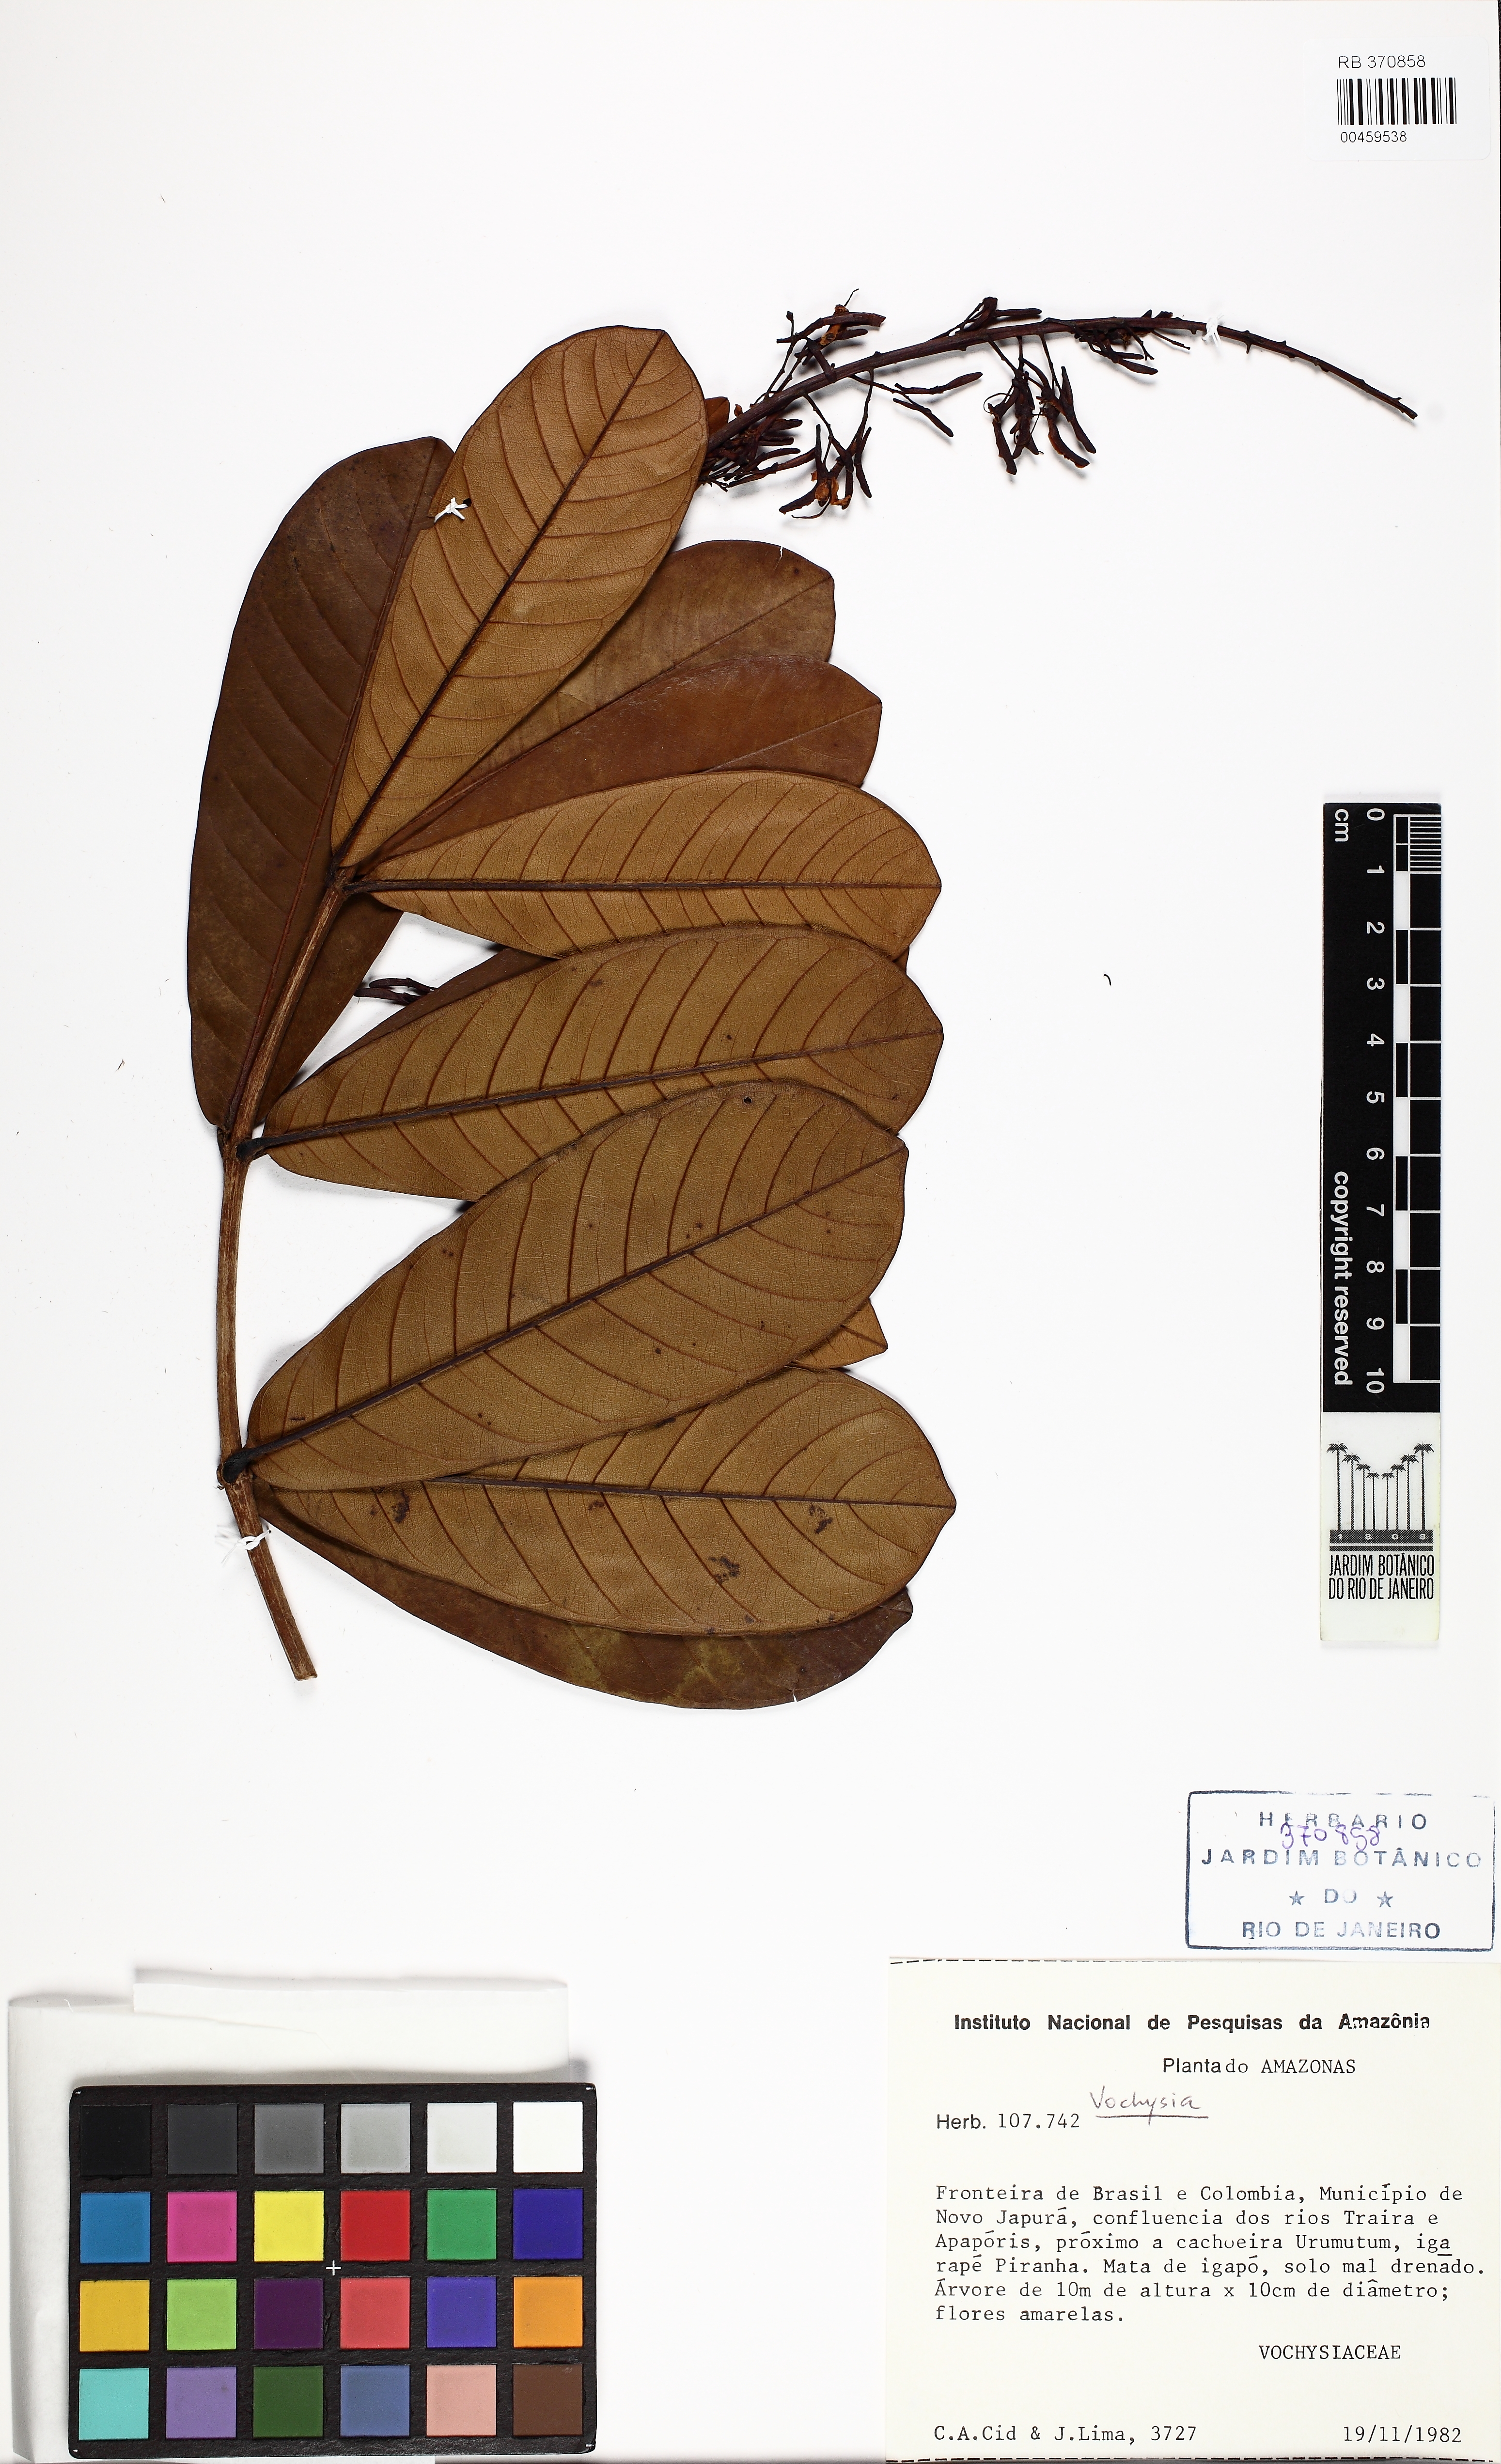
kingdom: Plantae
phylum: Tracheophyta
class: Magnoliopsida
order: Myrtales
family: Vochysiaceae
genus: Vochysia
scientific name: Vochysia
